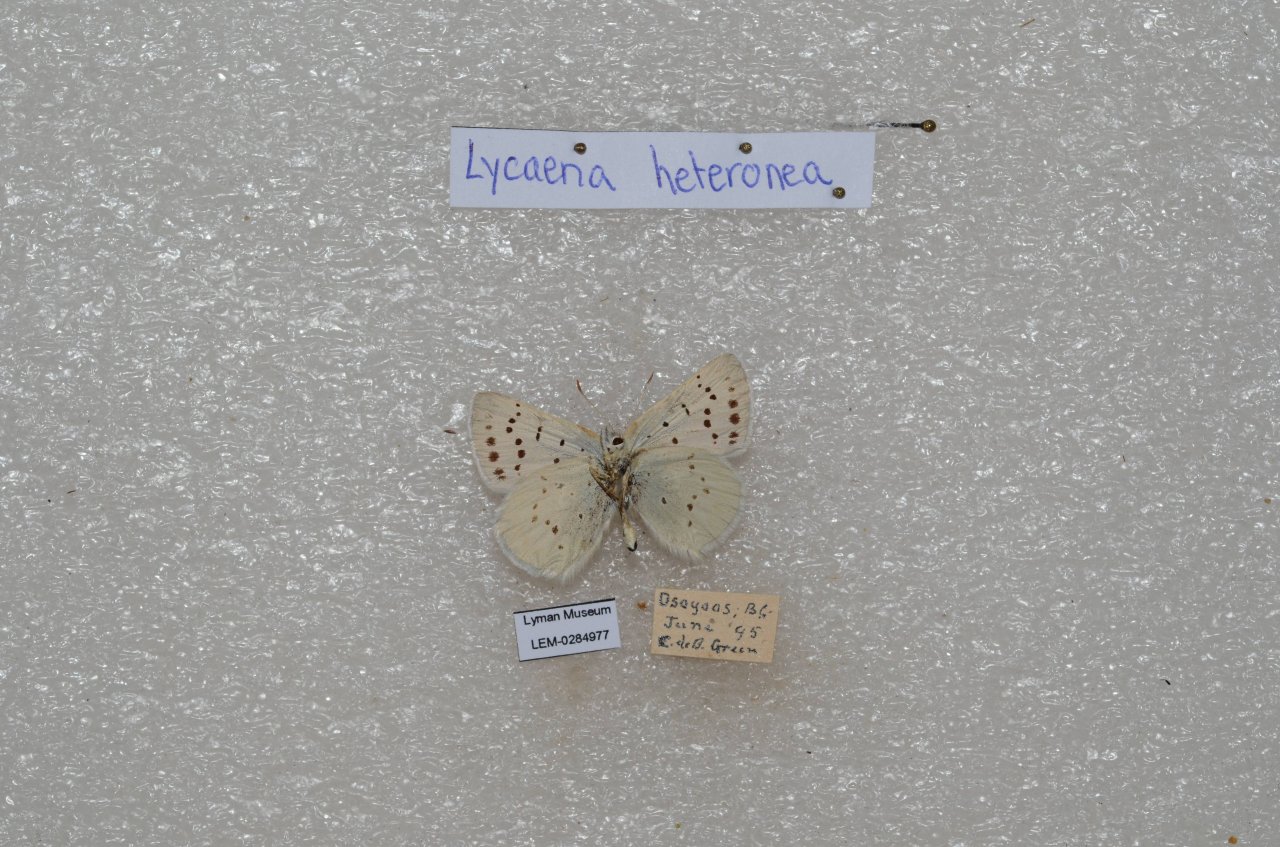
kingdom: Animalia
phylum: Arthropoda
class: Insecta
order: Lepidoptera
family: Lycaenidae
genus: Lycaena
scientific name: Lycaena heteronea
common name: Blue Copper
